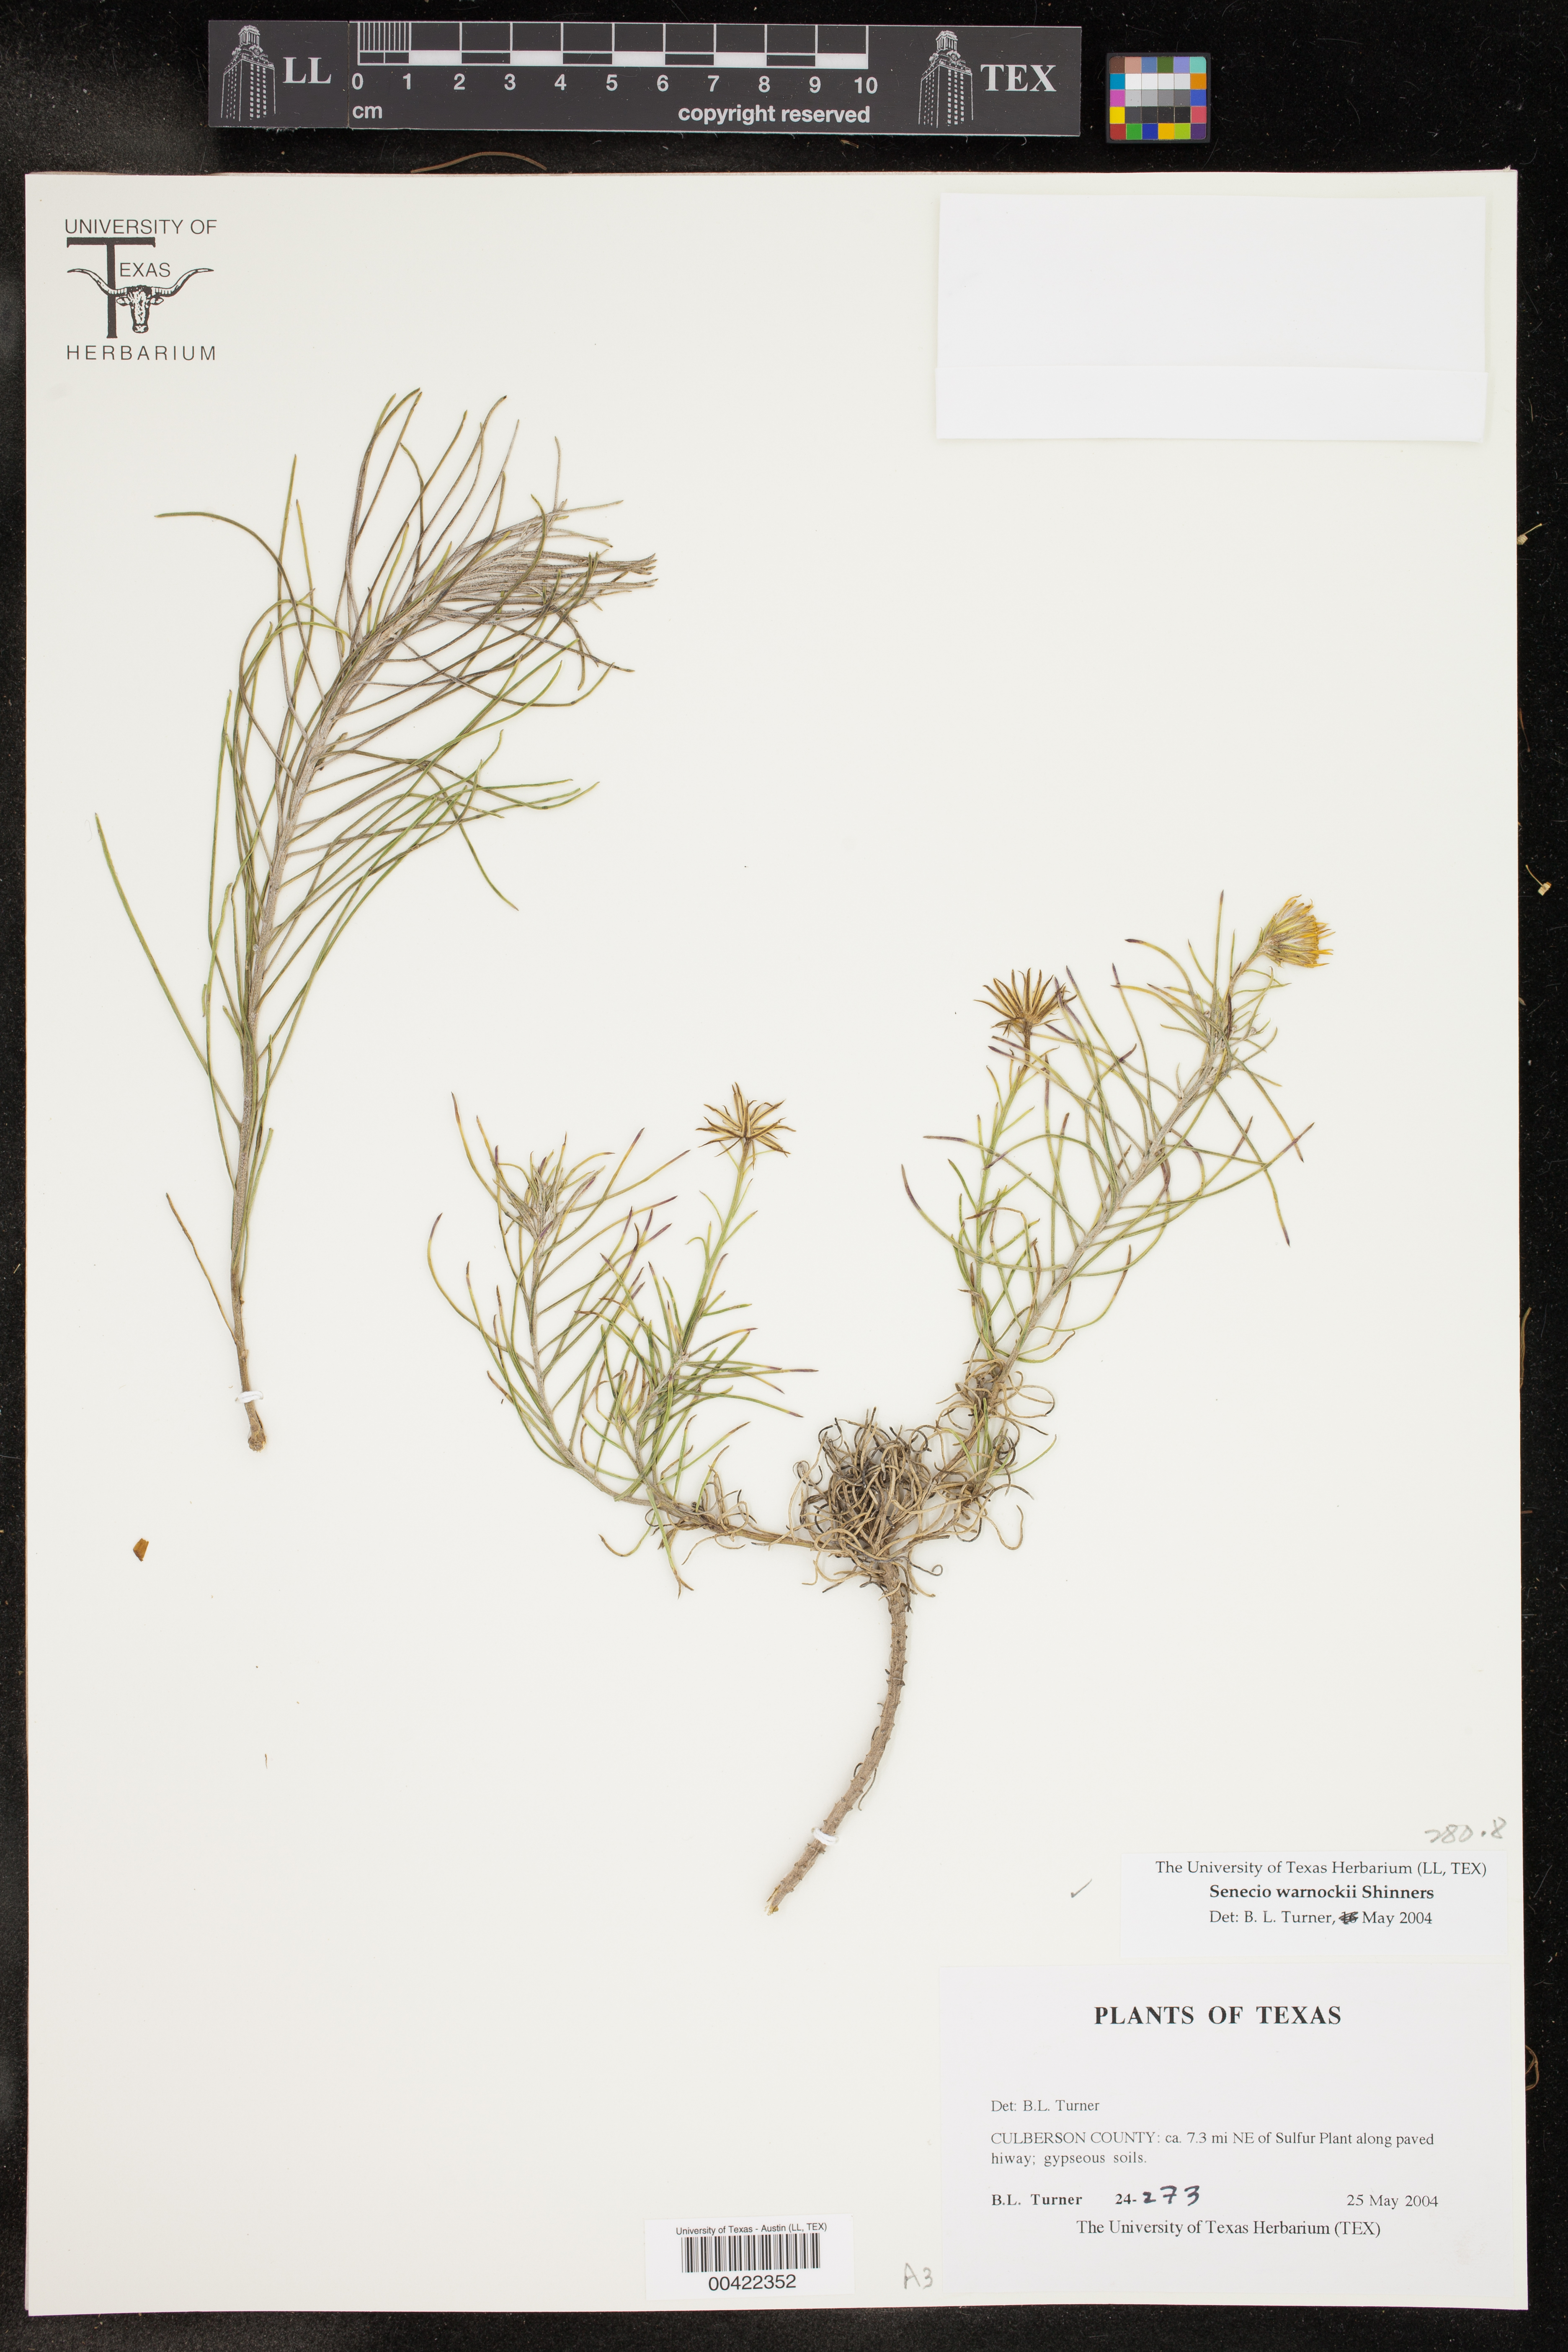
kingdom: Plantae
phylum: Tracheophyta
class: Magnoliopsida
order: Asterales
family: Asteraceae
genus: Senecio
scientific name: Senecio warnockii
